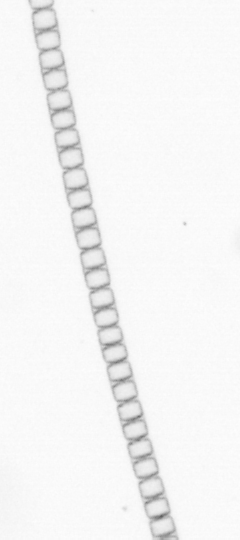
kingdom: Chromista
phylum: Ochrophyta
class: Bacillariophyceae
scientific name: Bacillariophyceae
